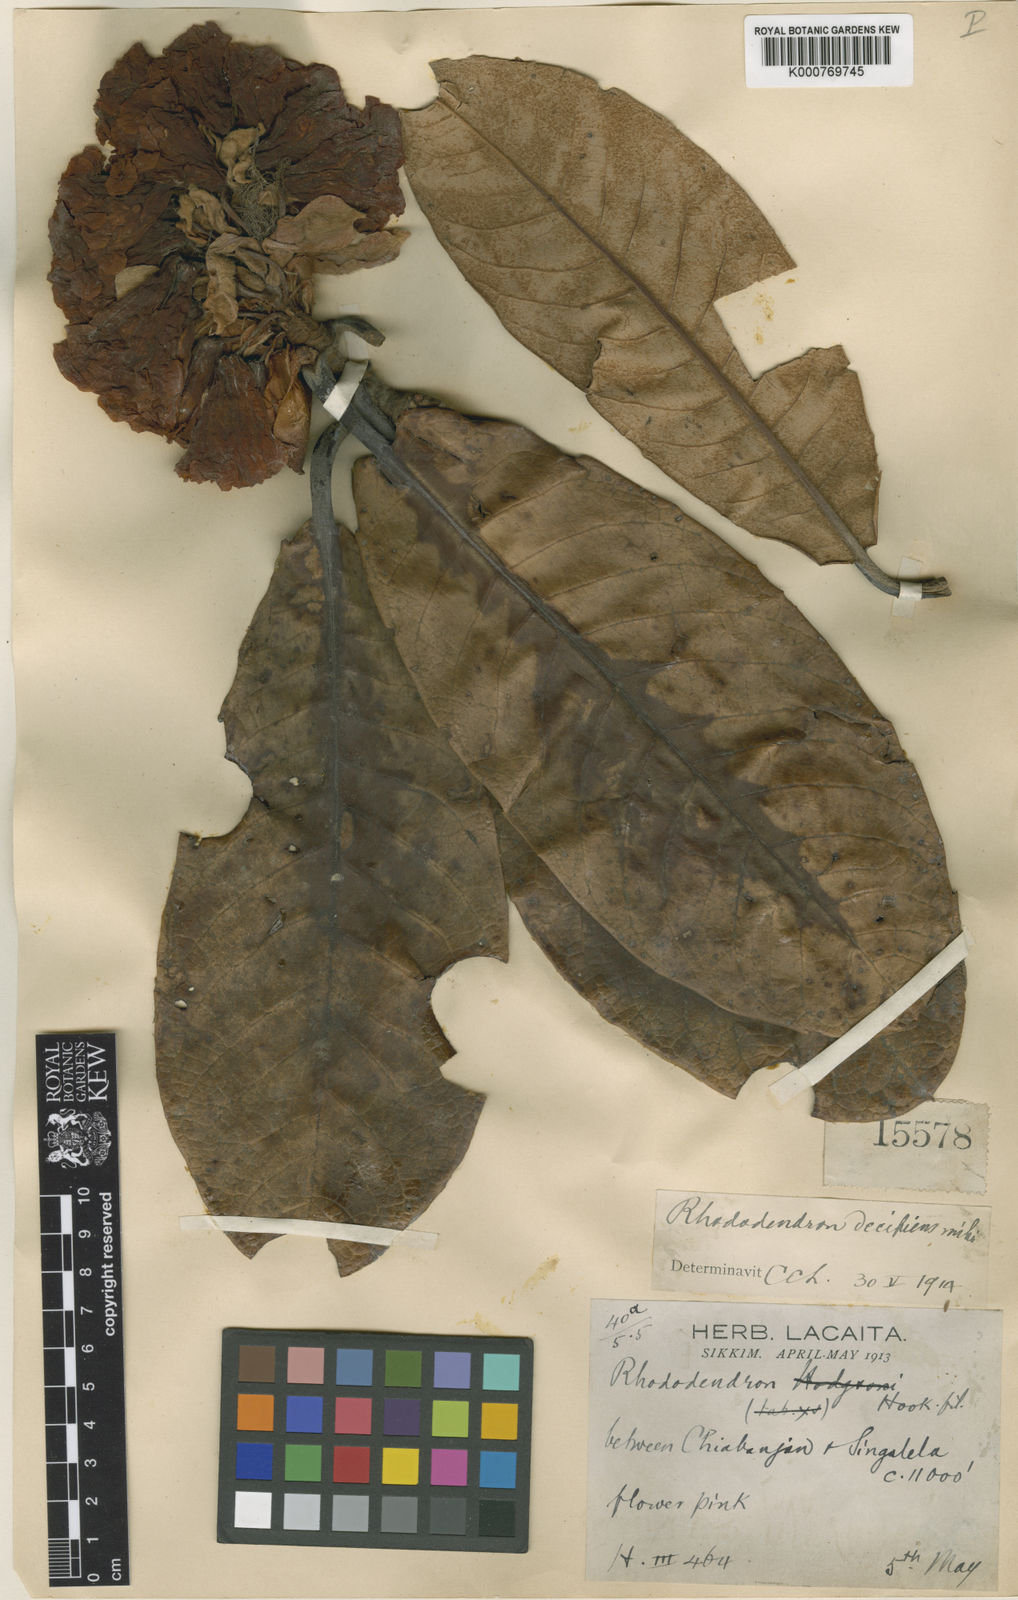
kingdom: Plantae
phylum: Tracheophyta
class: Magnoliopsida
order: Ericales
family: Ericaceae
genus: Rhododendron
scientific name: Rhododendron hodgsonii
